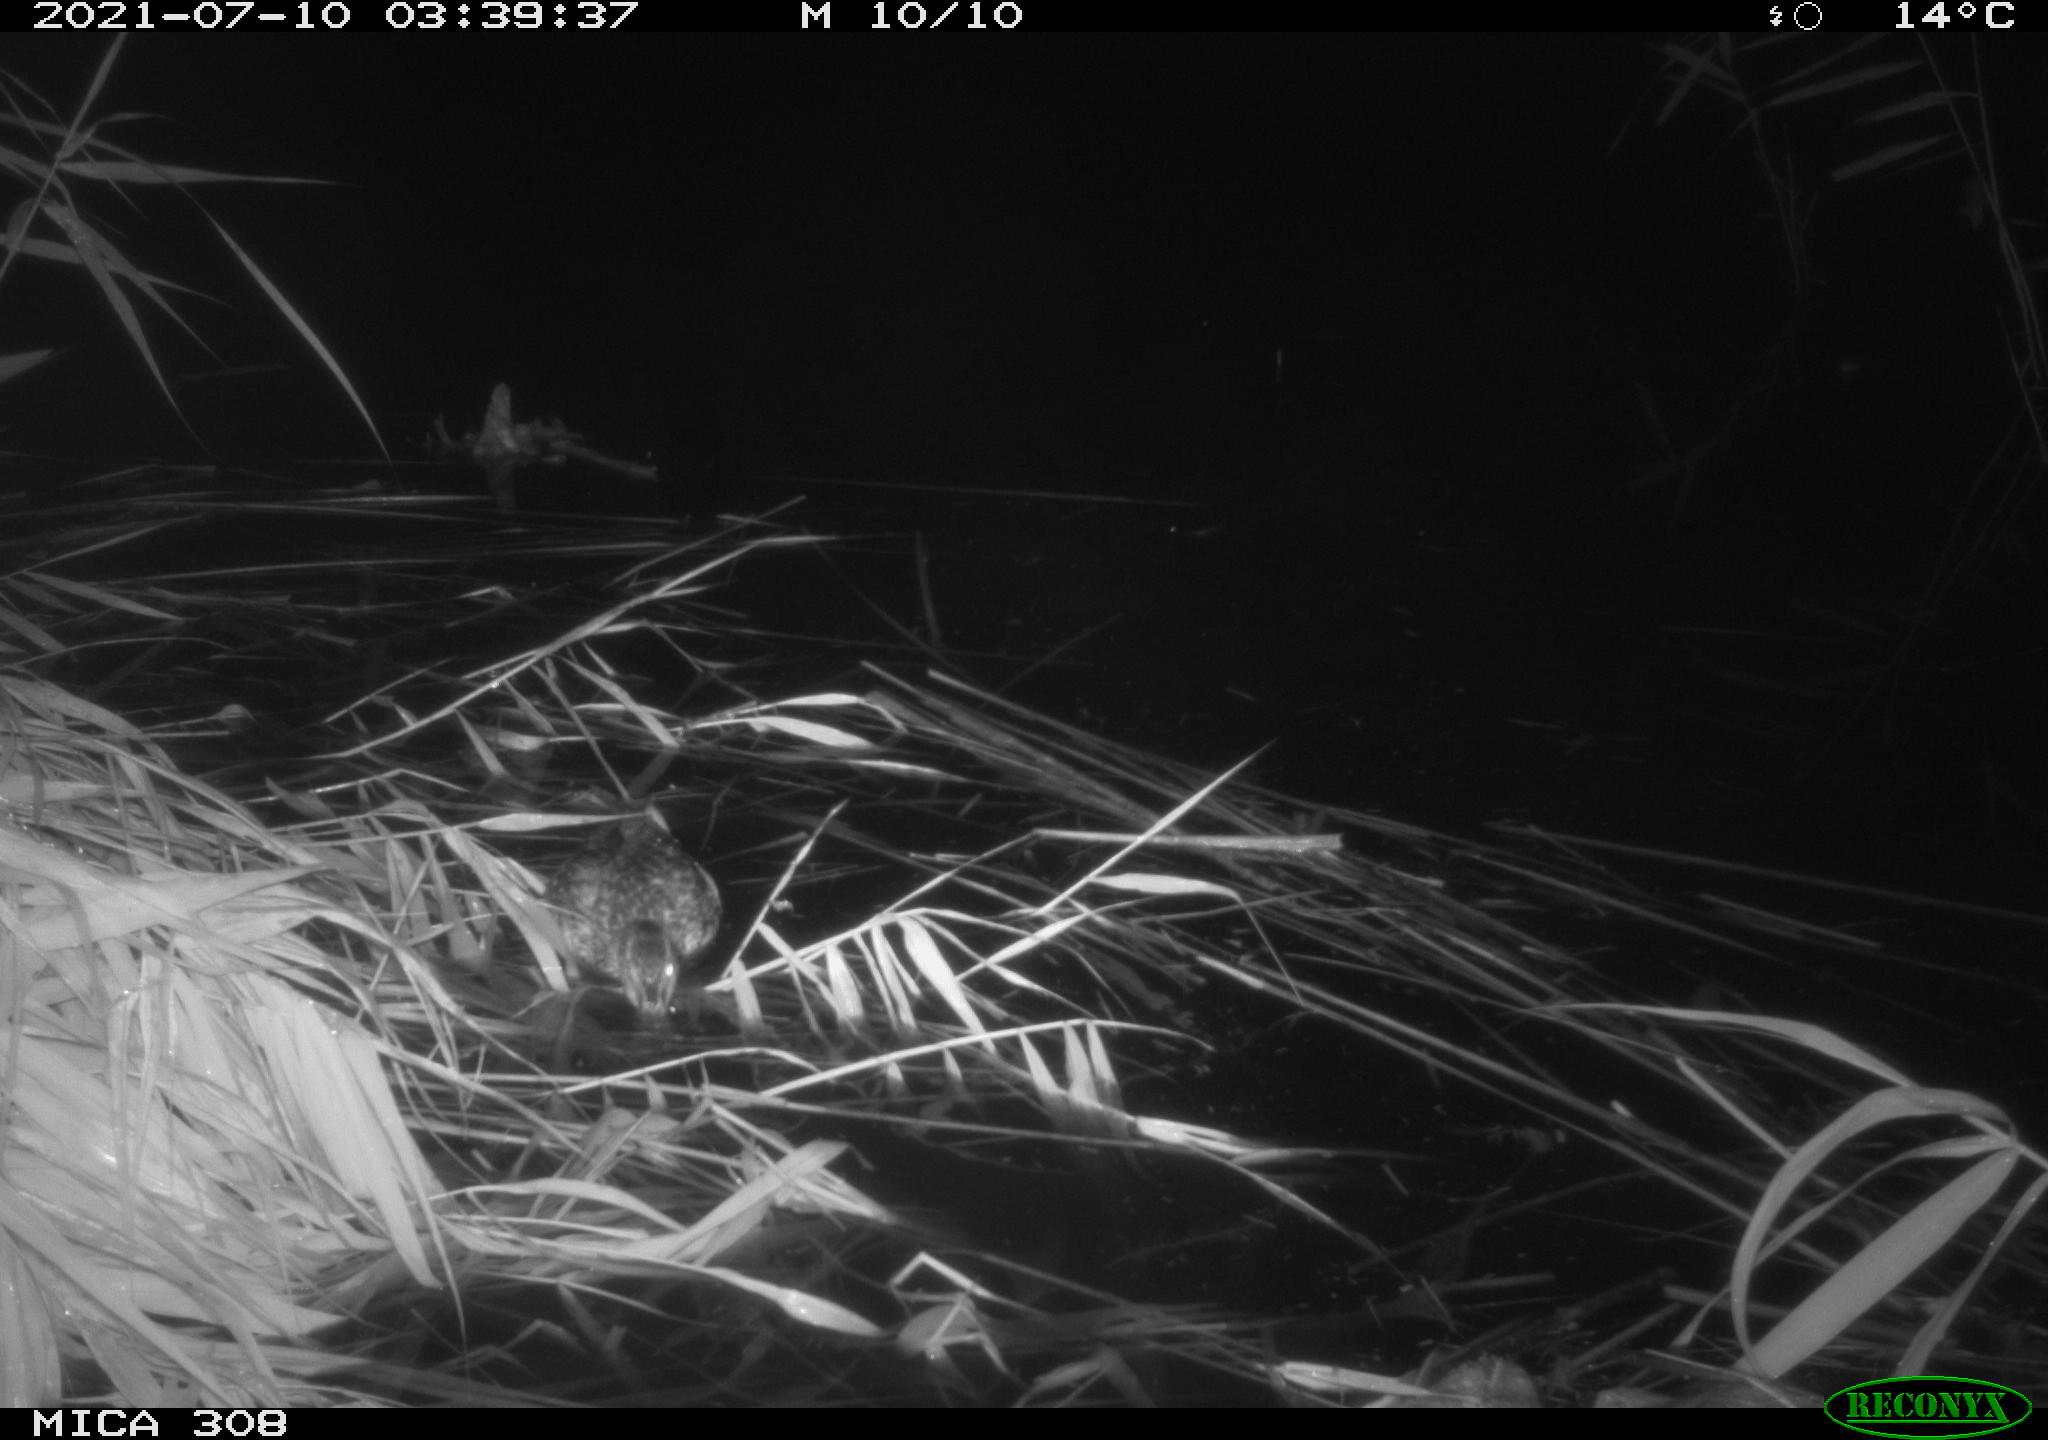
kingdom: Animalia
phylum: Chordata
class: Aves
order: Anseriformes
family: Anatidae
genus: Anas
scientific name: Anas platyrhynchos
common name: Mallard
